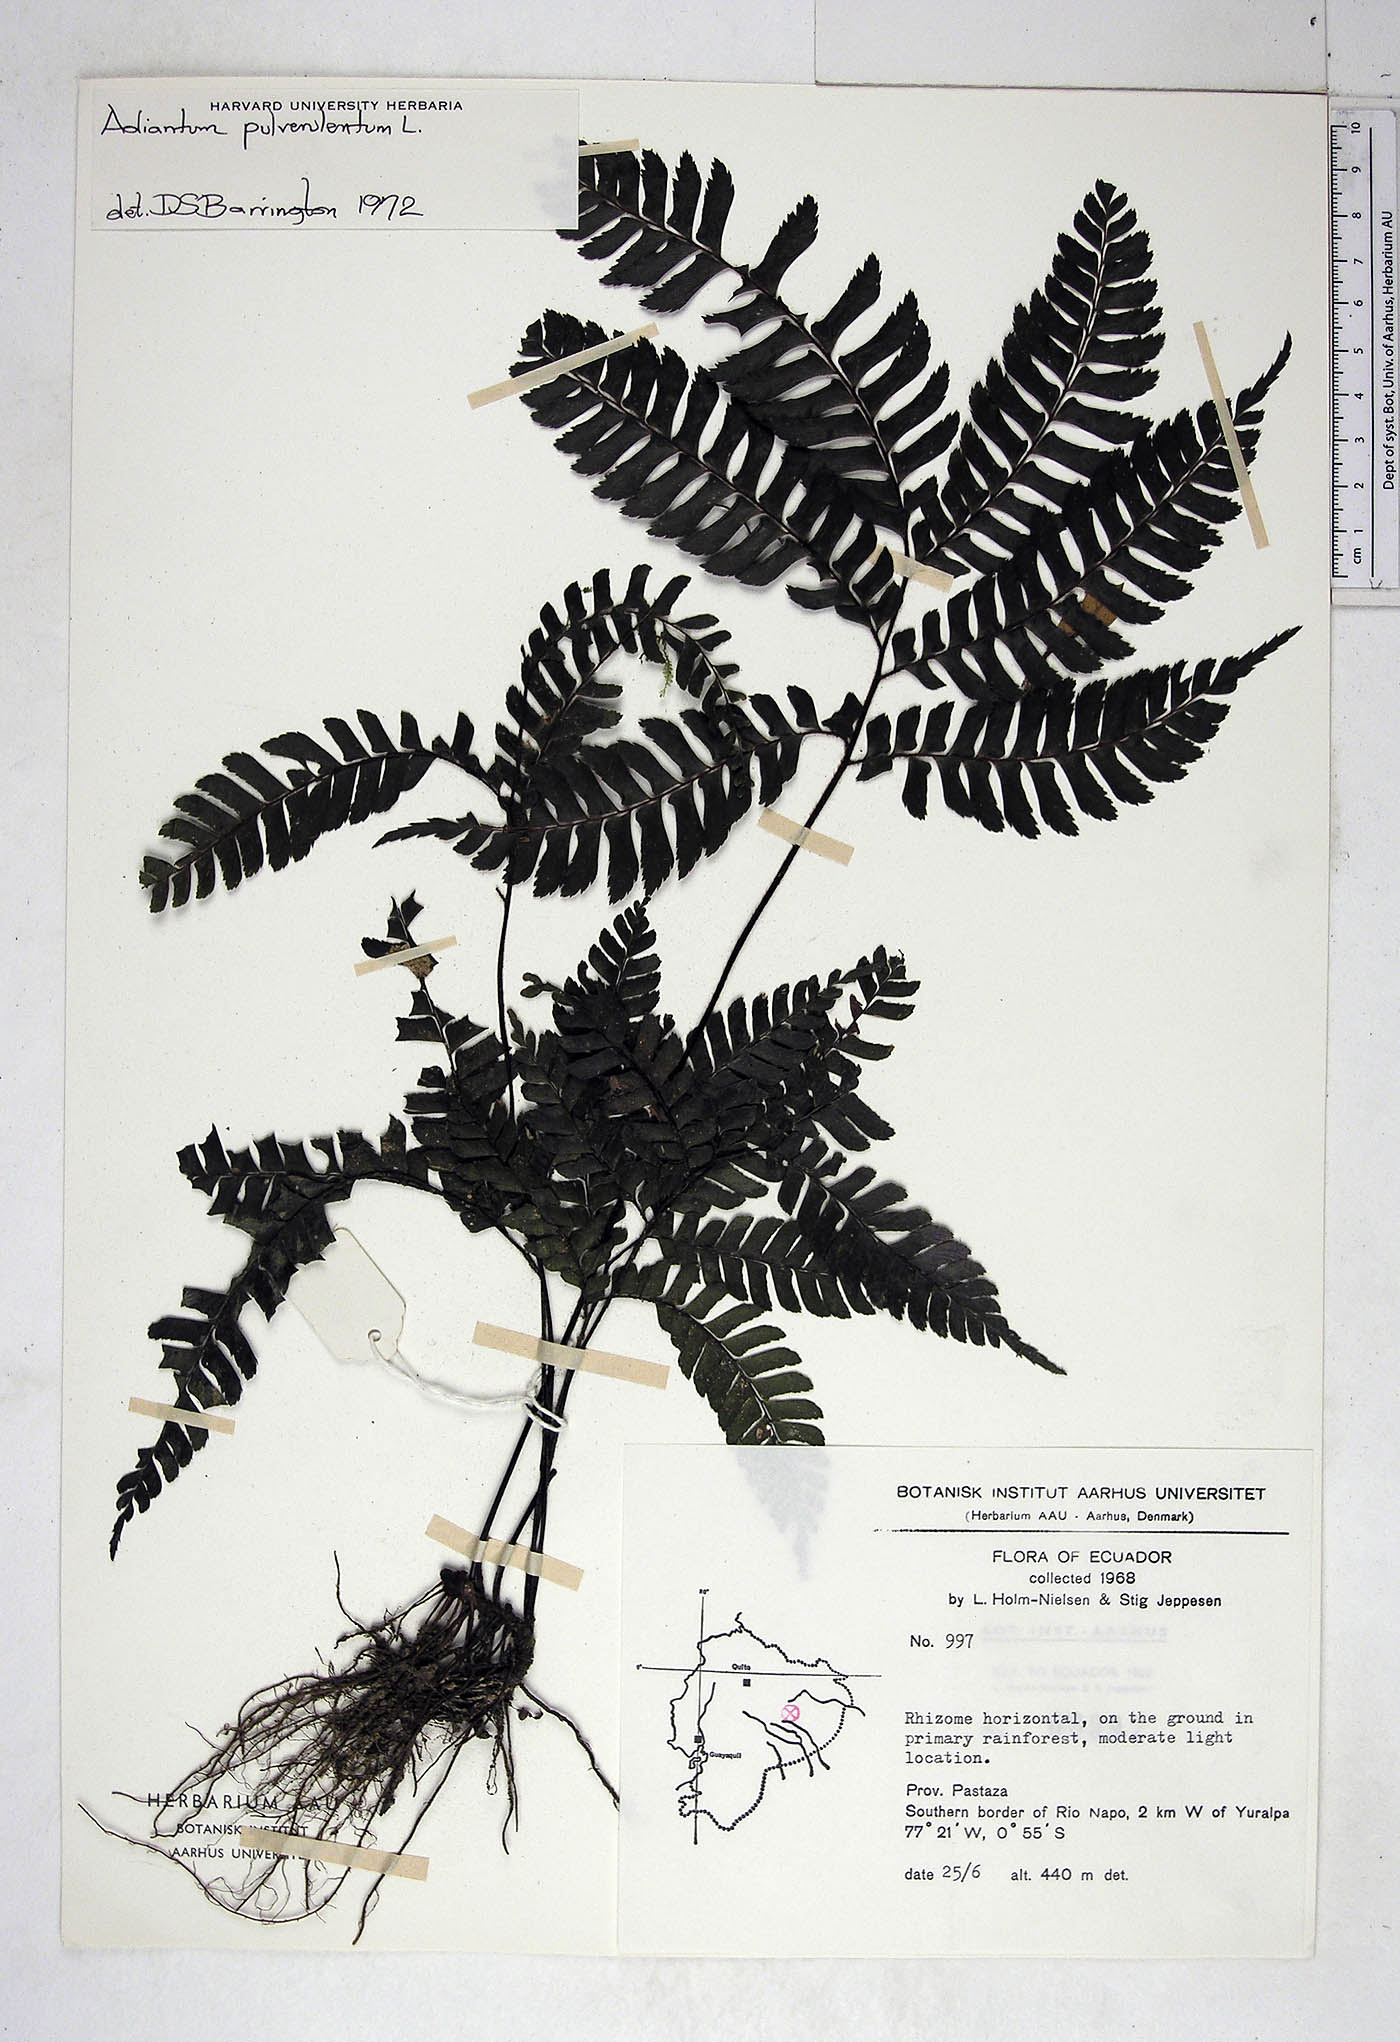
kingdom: Plantae
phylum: Tracheophyta
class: Polypodiopsida
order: Polypodiales
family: Pteridaceae
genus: Adiantum
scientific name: Adiantum pulverulentum
